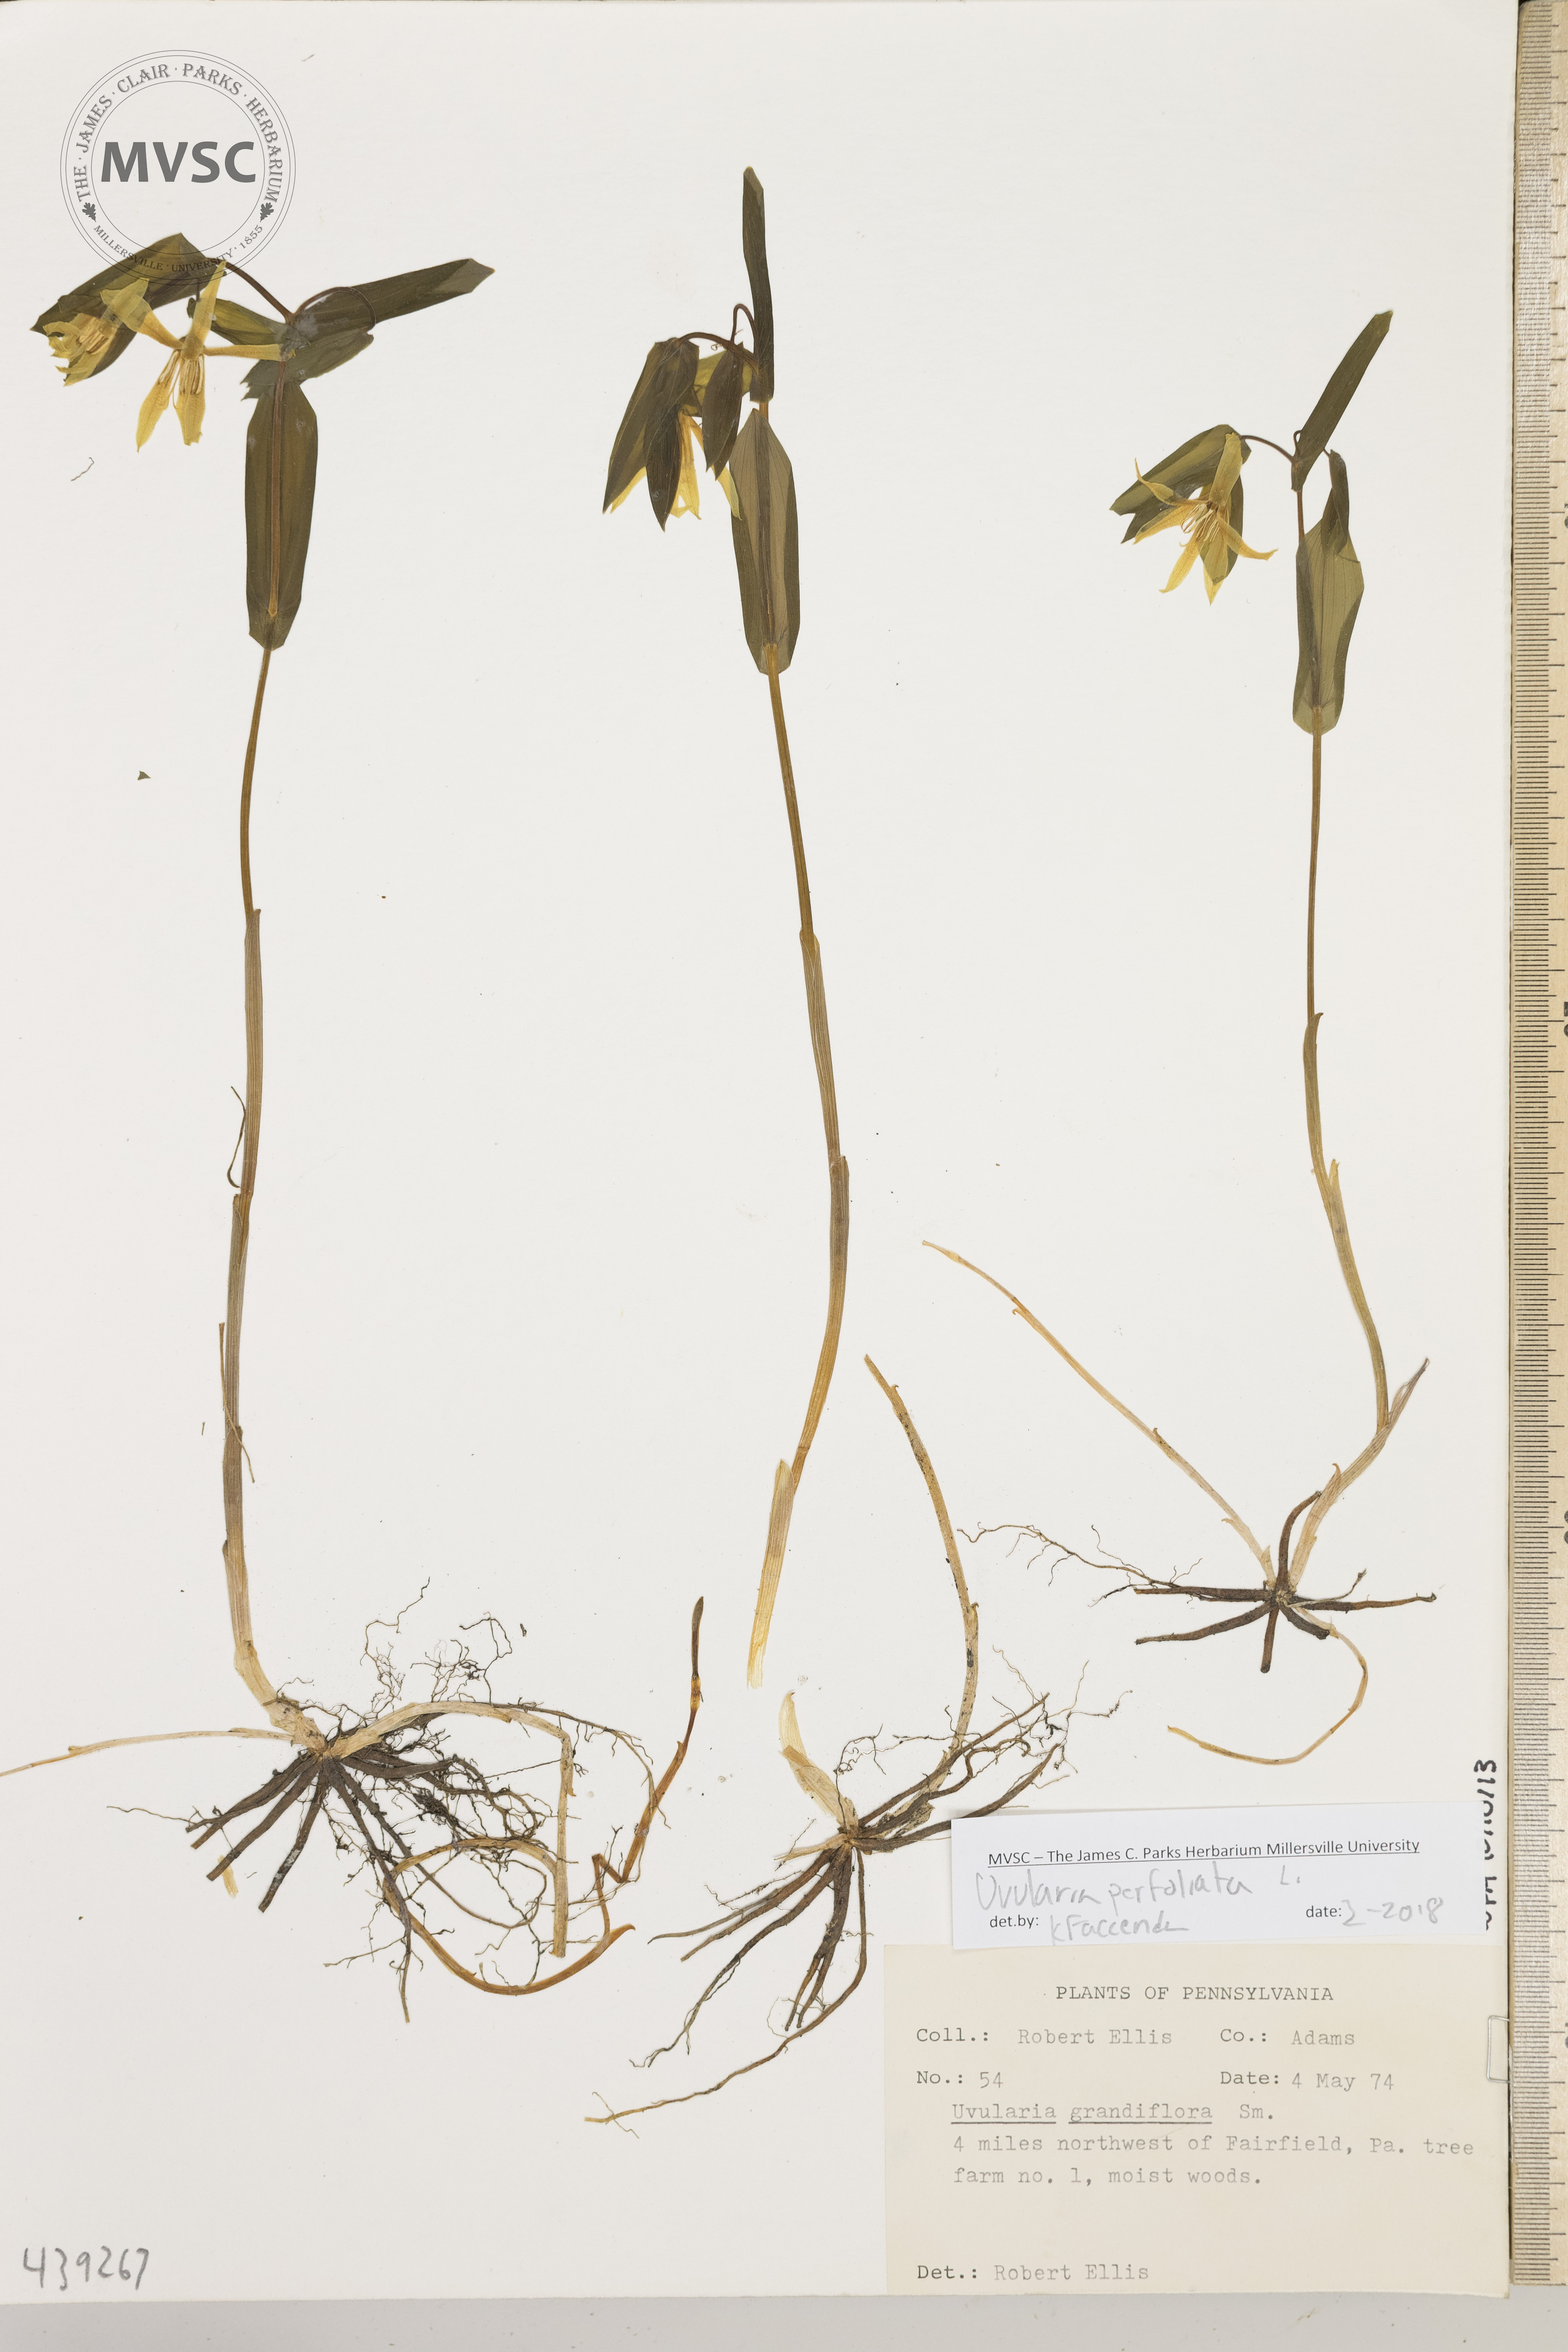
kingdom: Plantae
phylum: Tracheophyta
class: Liliopsida
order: Liliales
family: Colchicaceae
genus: Uvularia
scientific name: Uvularia perfoliata
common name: Perfoliate bellwort
